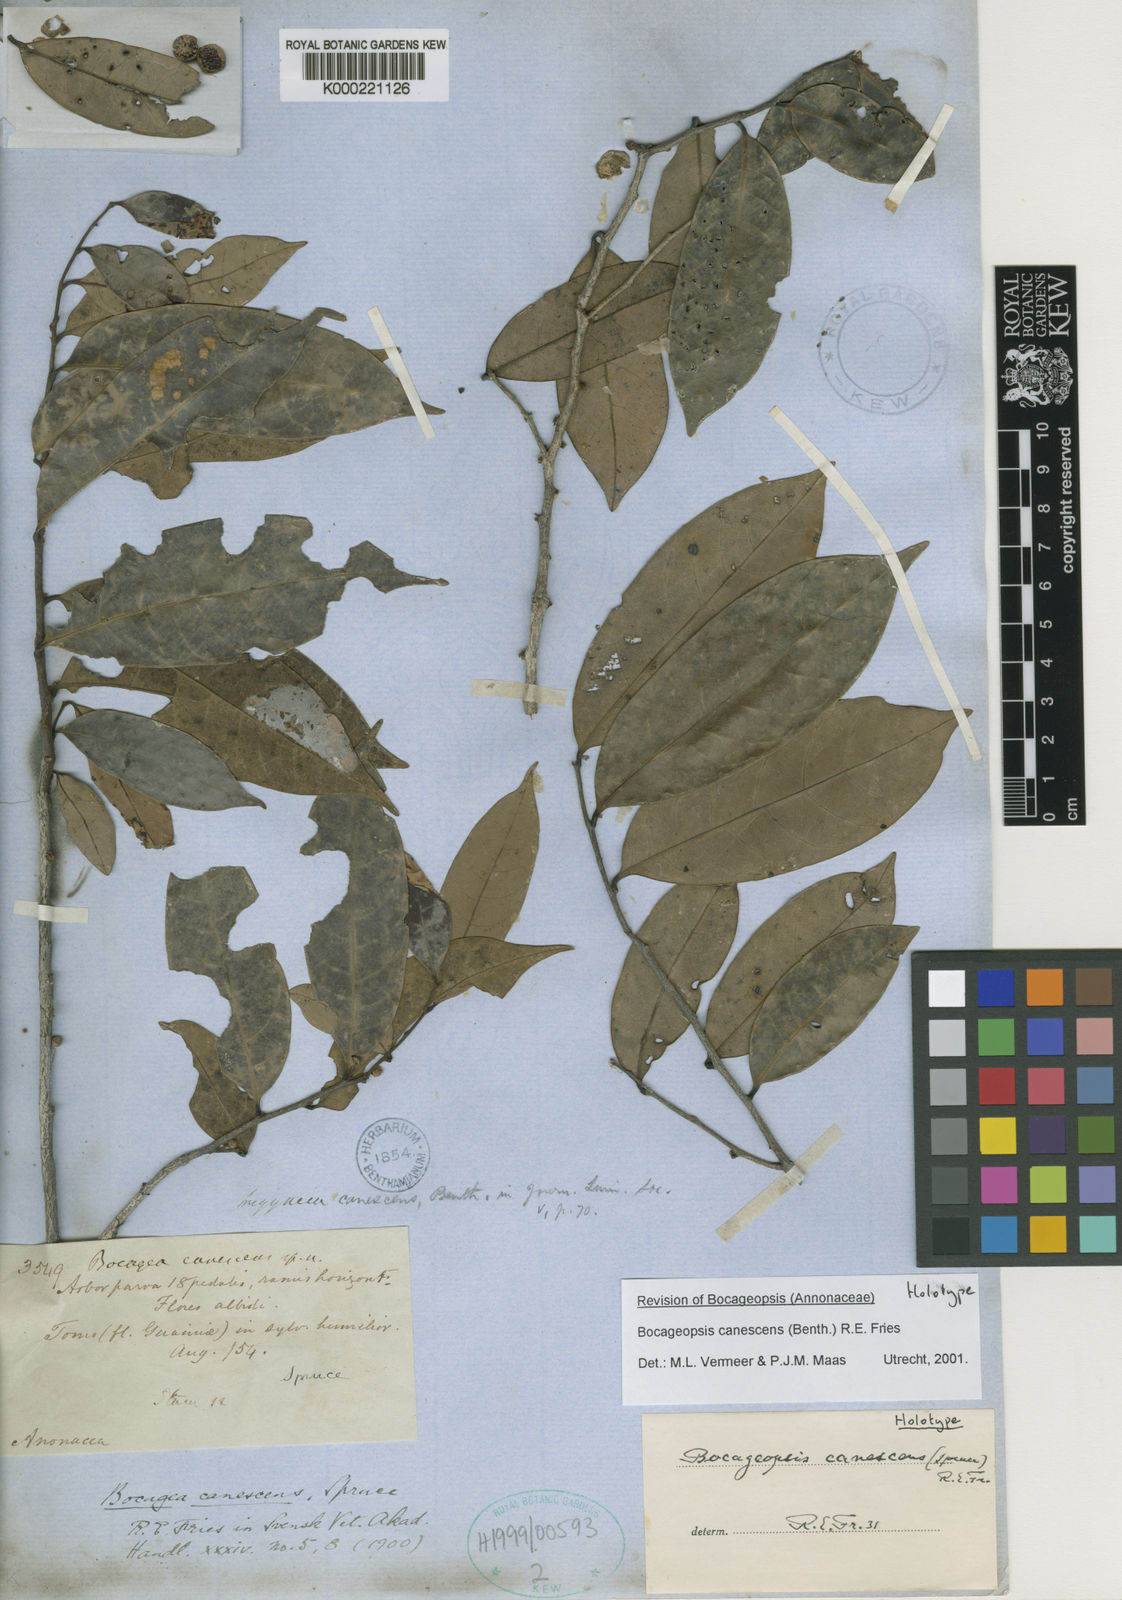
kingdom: Plantae
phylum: Tracheophyta
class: Magnoliopsida
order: Magnoliales
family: Annonaceae
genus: Oxandra
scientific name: Oxandra leucodermis
